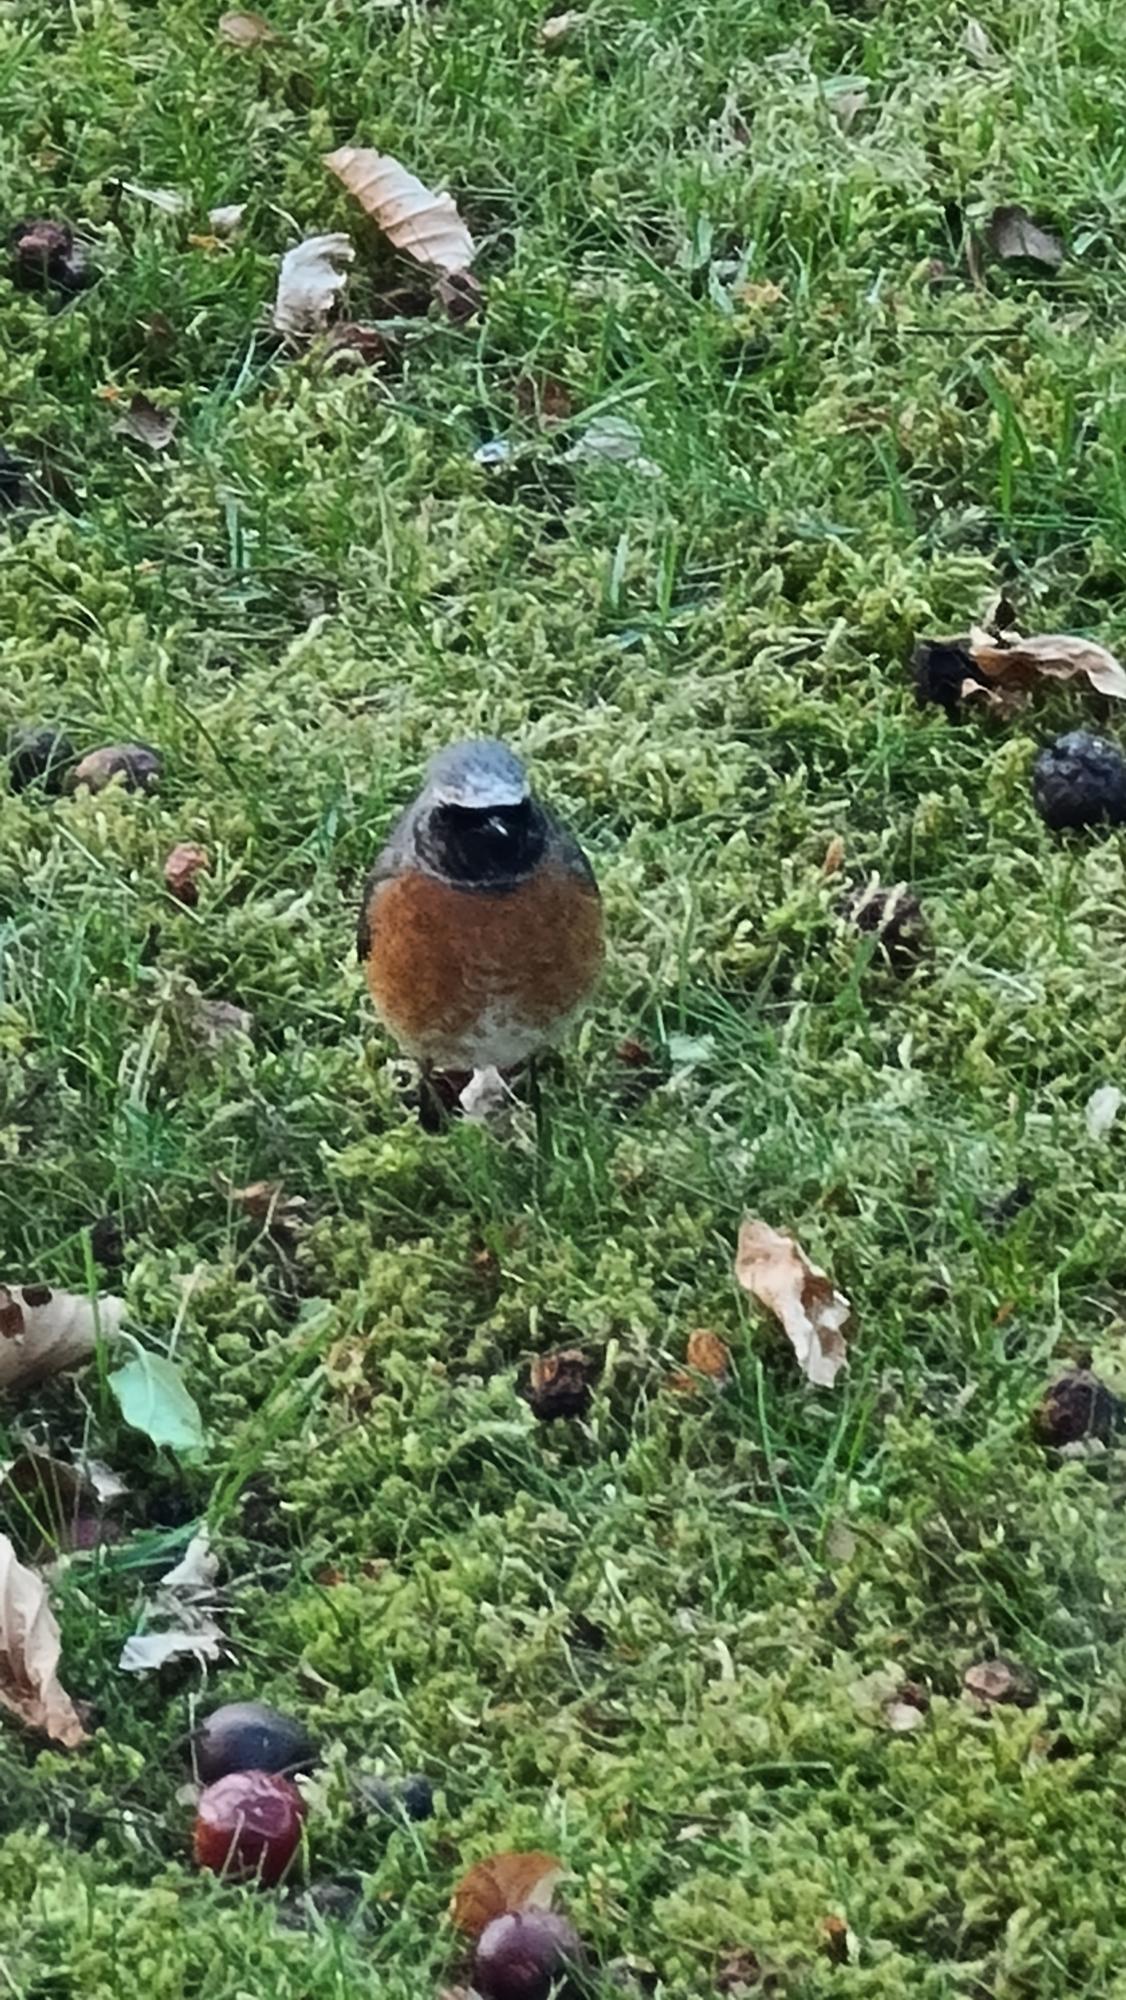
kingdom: Animalia
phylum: Chordata
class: Aves
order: Passeriformes
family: Muscicapidae
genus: Phoenicurus
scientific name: Phoenicurus phoenicurus
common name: Rødstjert
